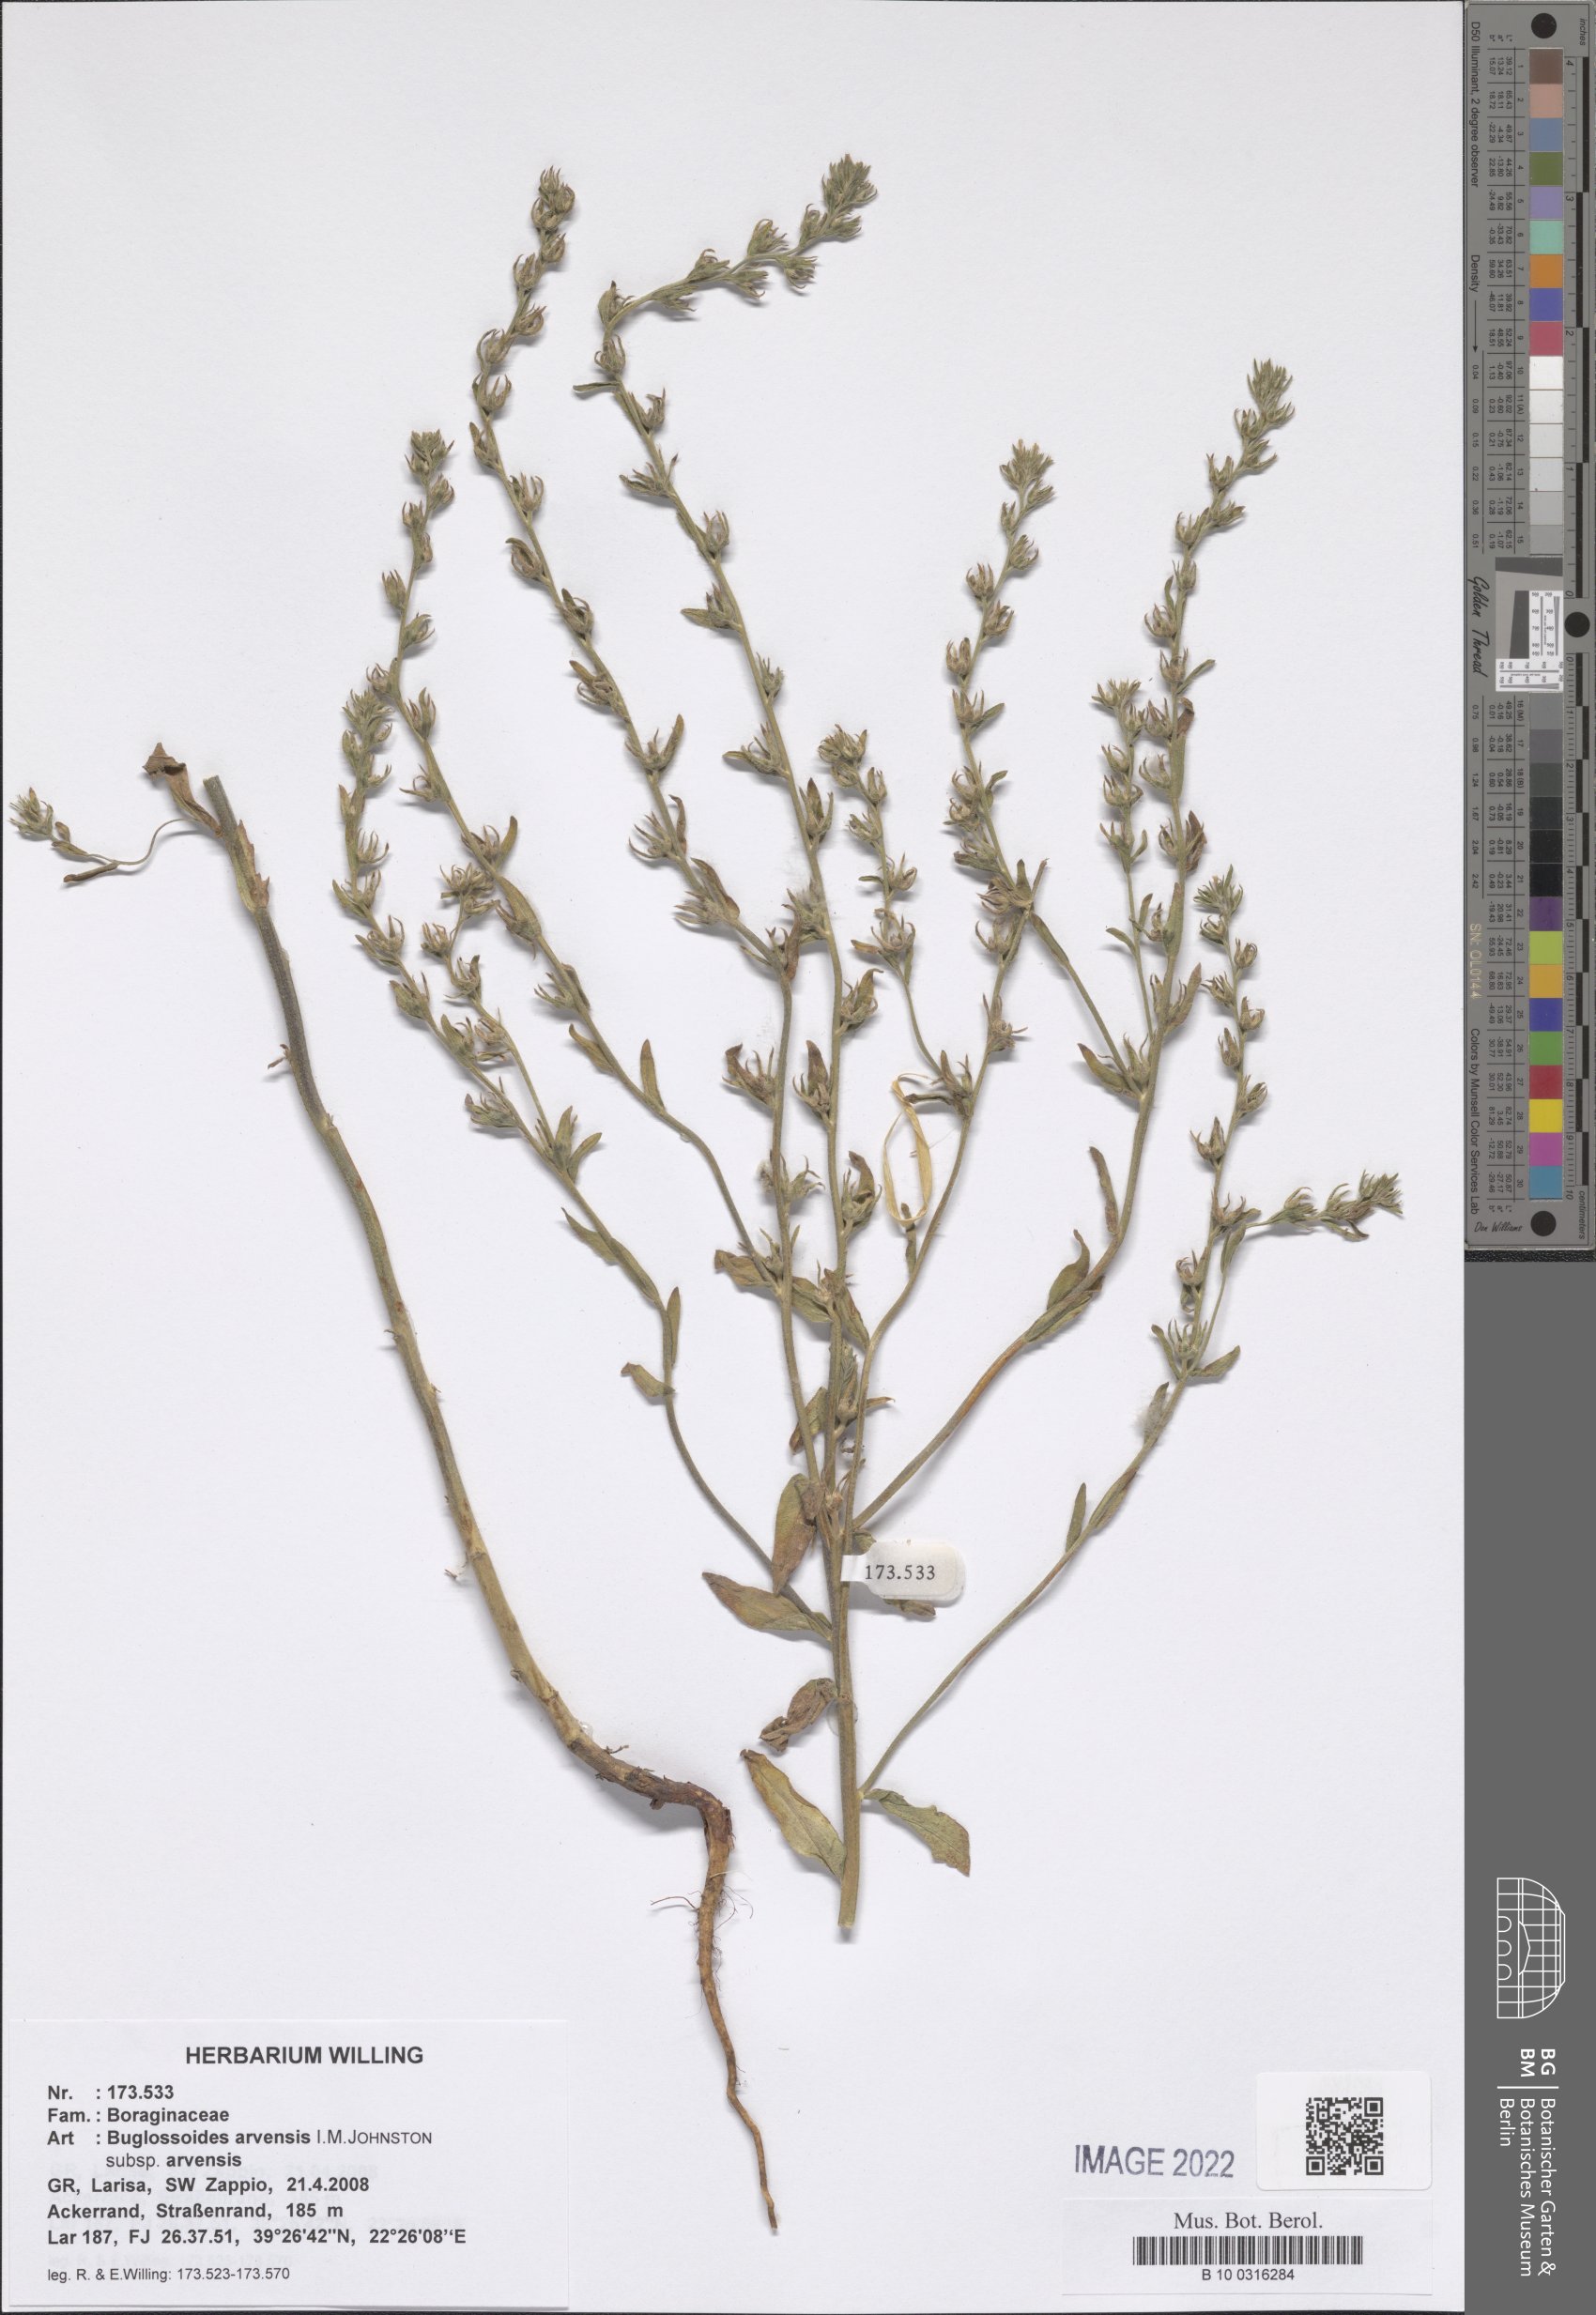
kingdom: Plantae
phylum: Tracheophyta
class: Magnoliopsida
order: Boraginales
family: Boraginaceae
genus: Buglossoides
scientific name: Buglossoides arvensis
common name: Corn gromwell
